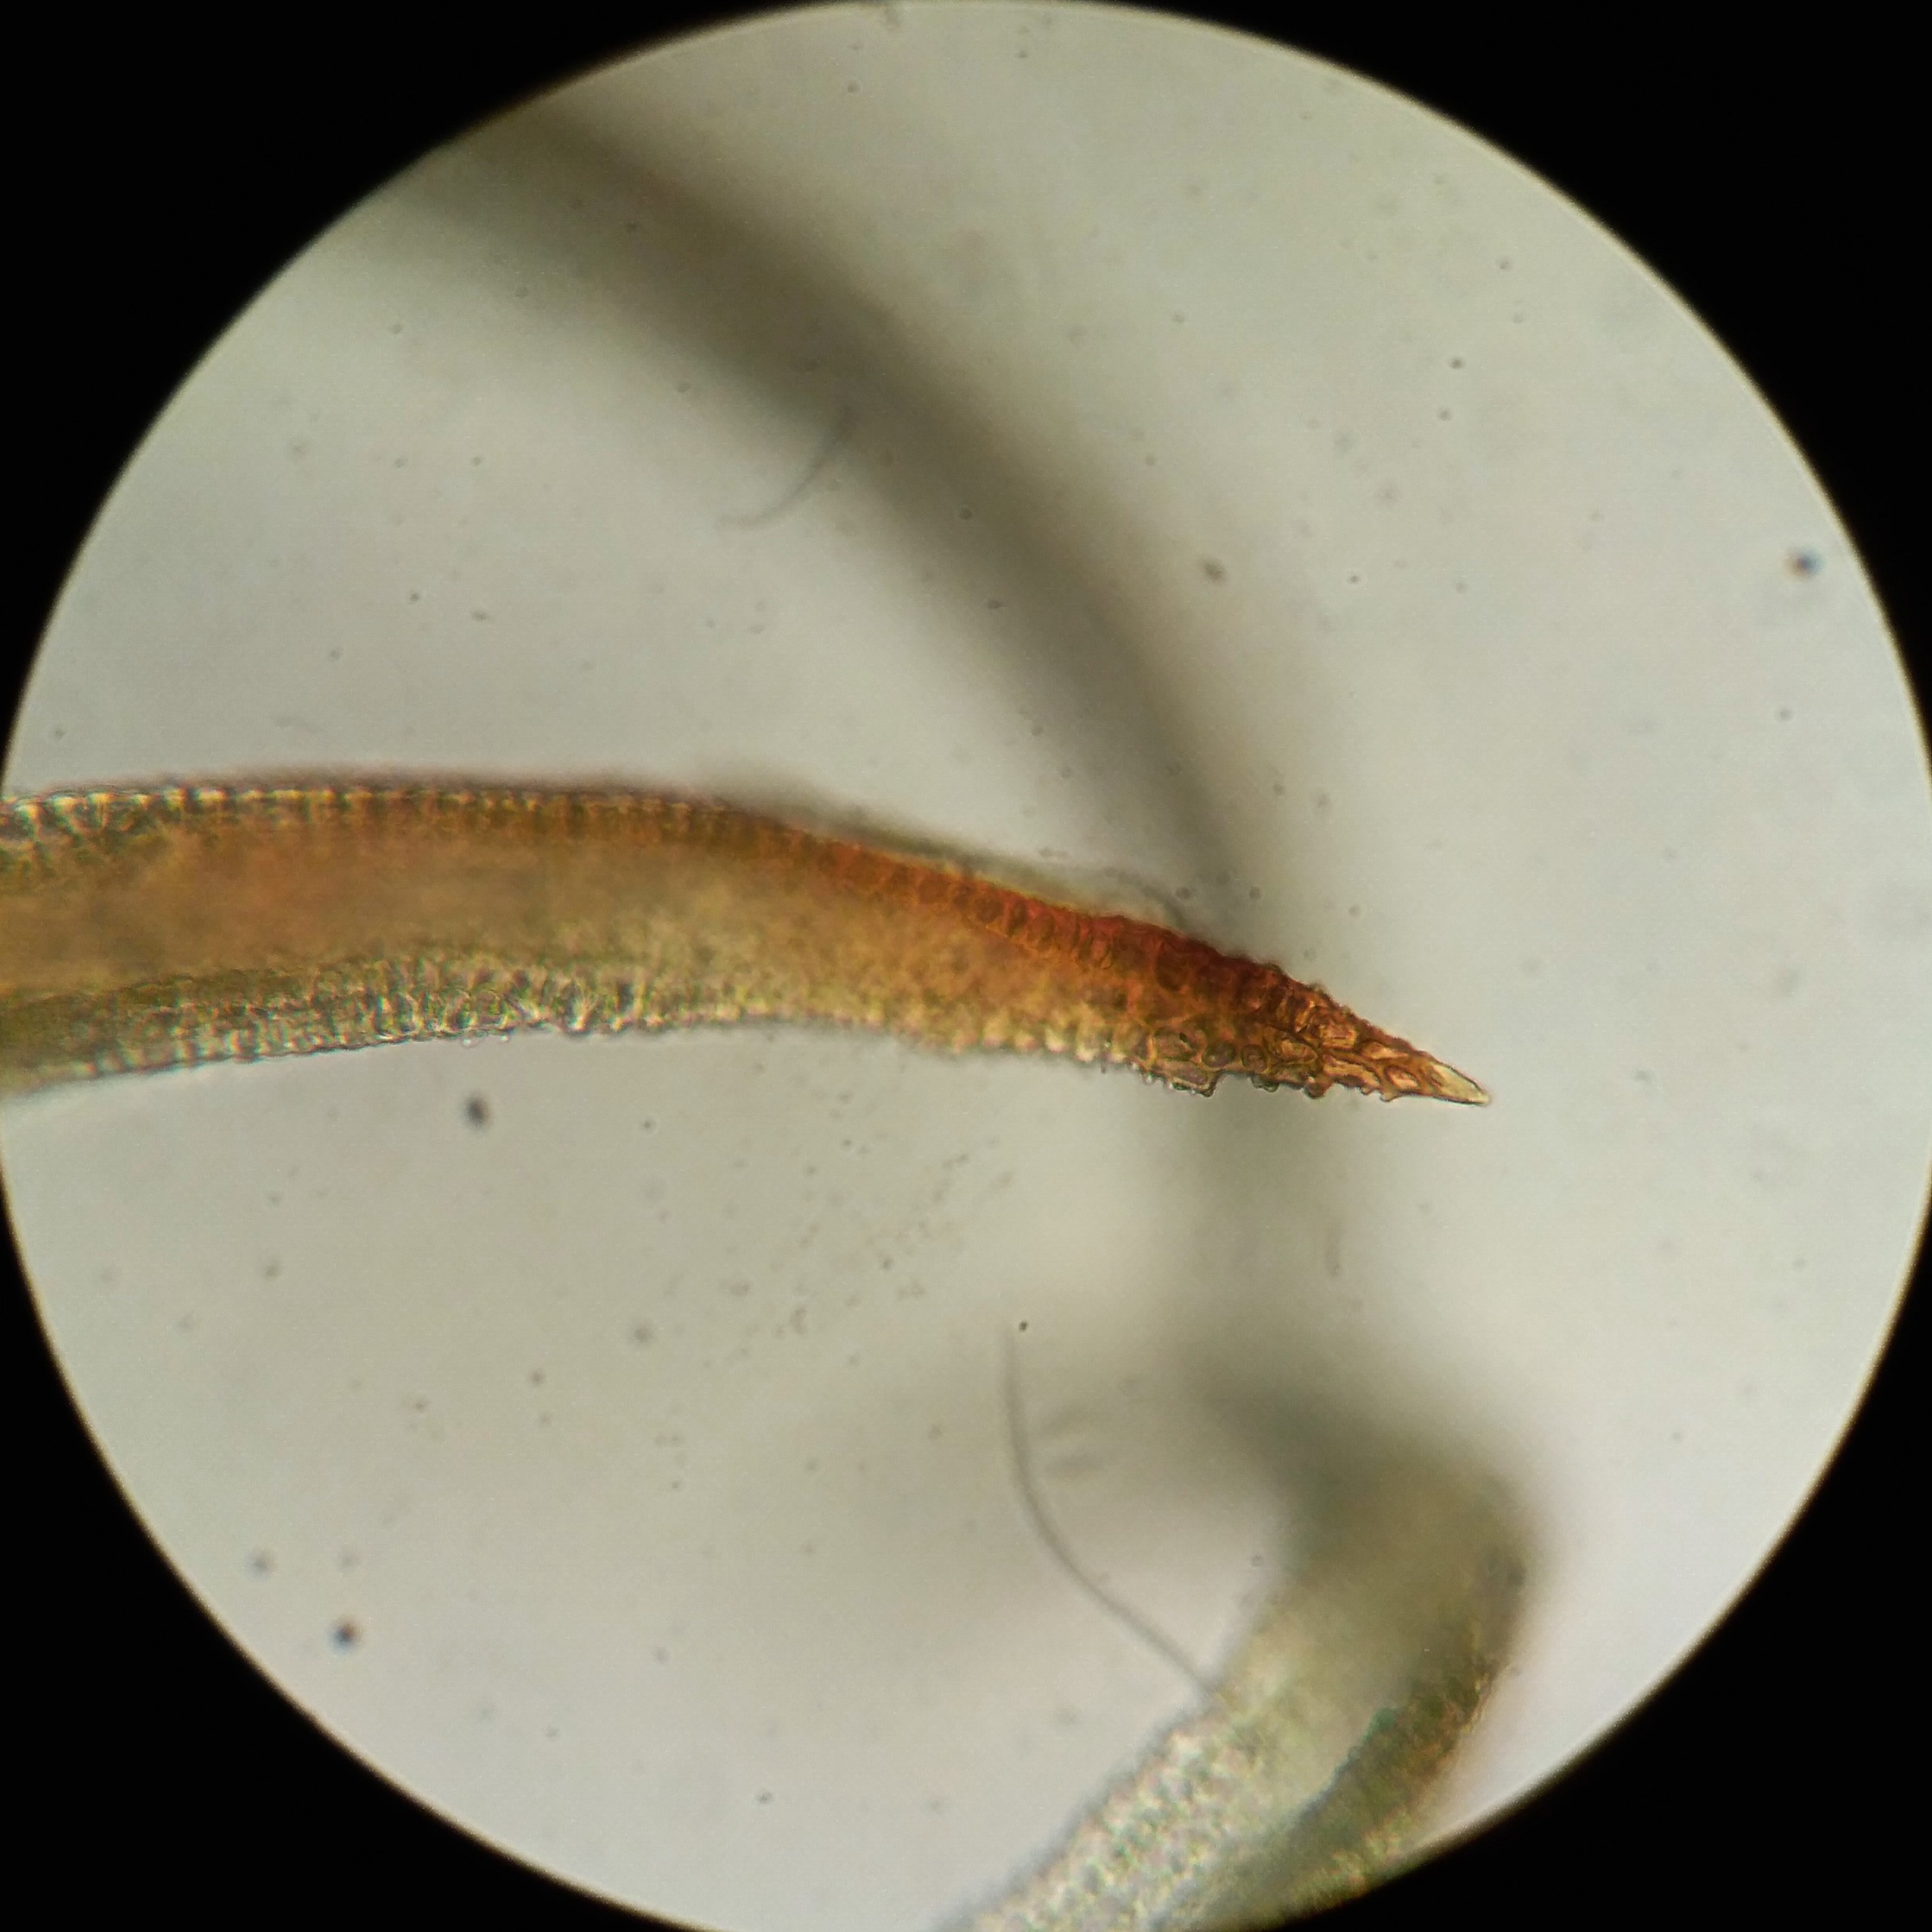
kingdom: Plantae
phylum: Bryophyta
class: Bryopsida
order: Pottiales
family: Pottiaceae
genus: Bryoerythrophyllum
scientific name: Bryoerythrophyllum recurvirostrum
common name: Rød gammelblad
